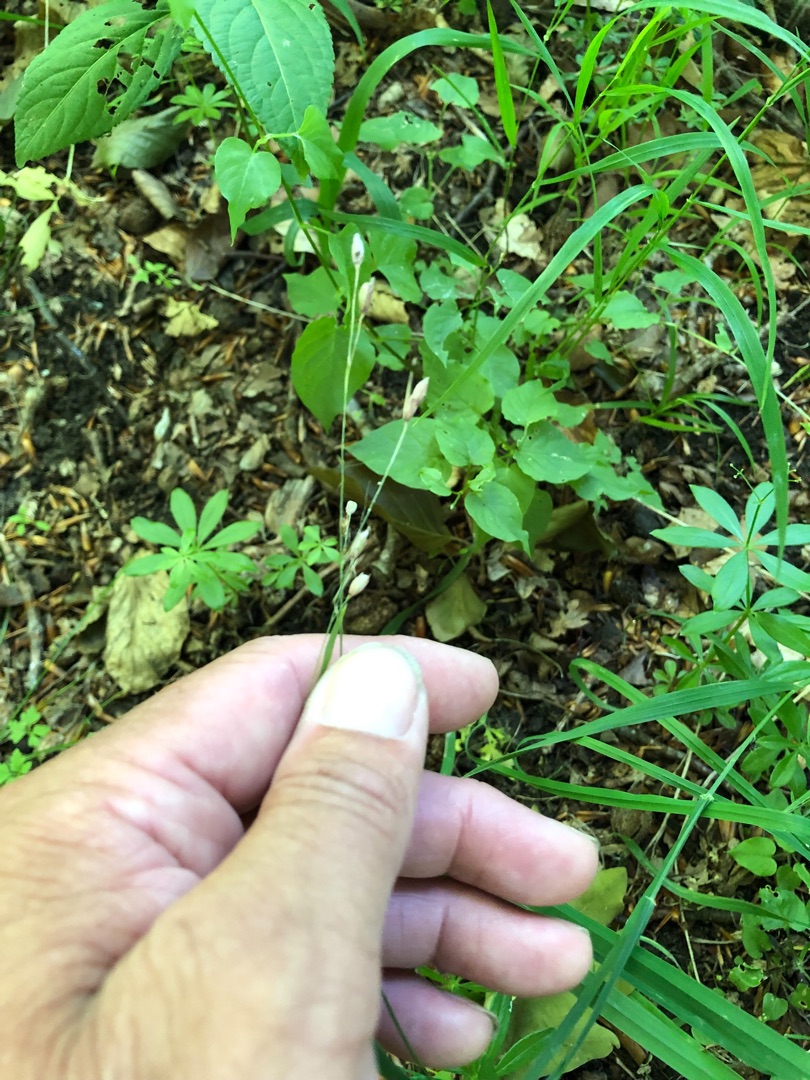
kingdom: Plantae
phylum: Tracheophyta
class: Liliopsida
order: Poales
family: Poaceae
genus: Melica
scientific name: Melica uniflora
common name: Enblomstret flitteraks
